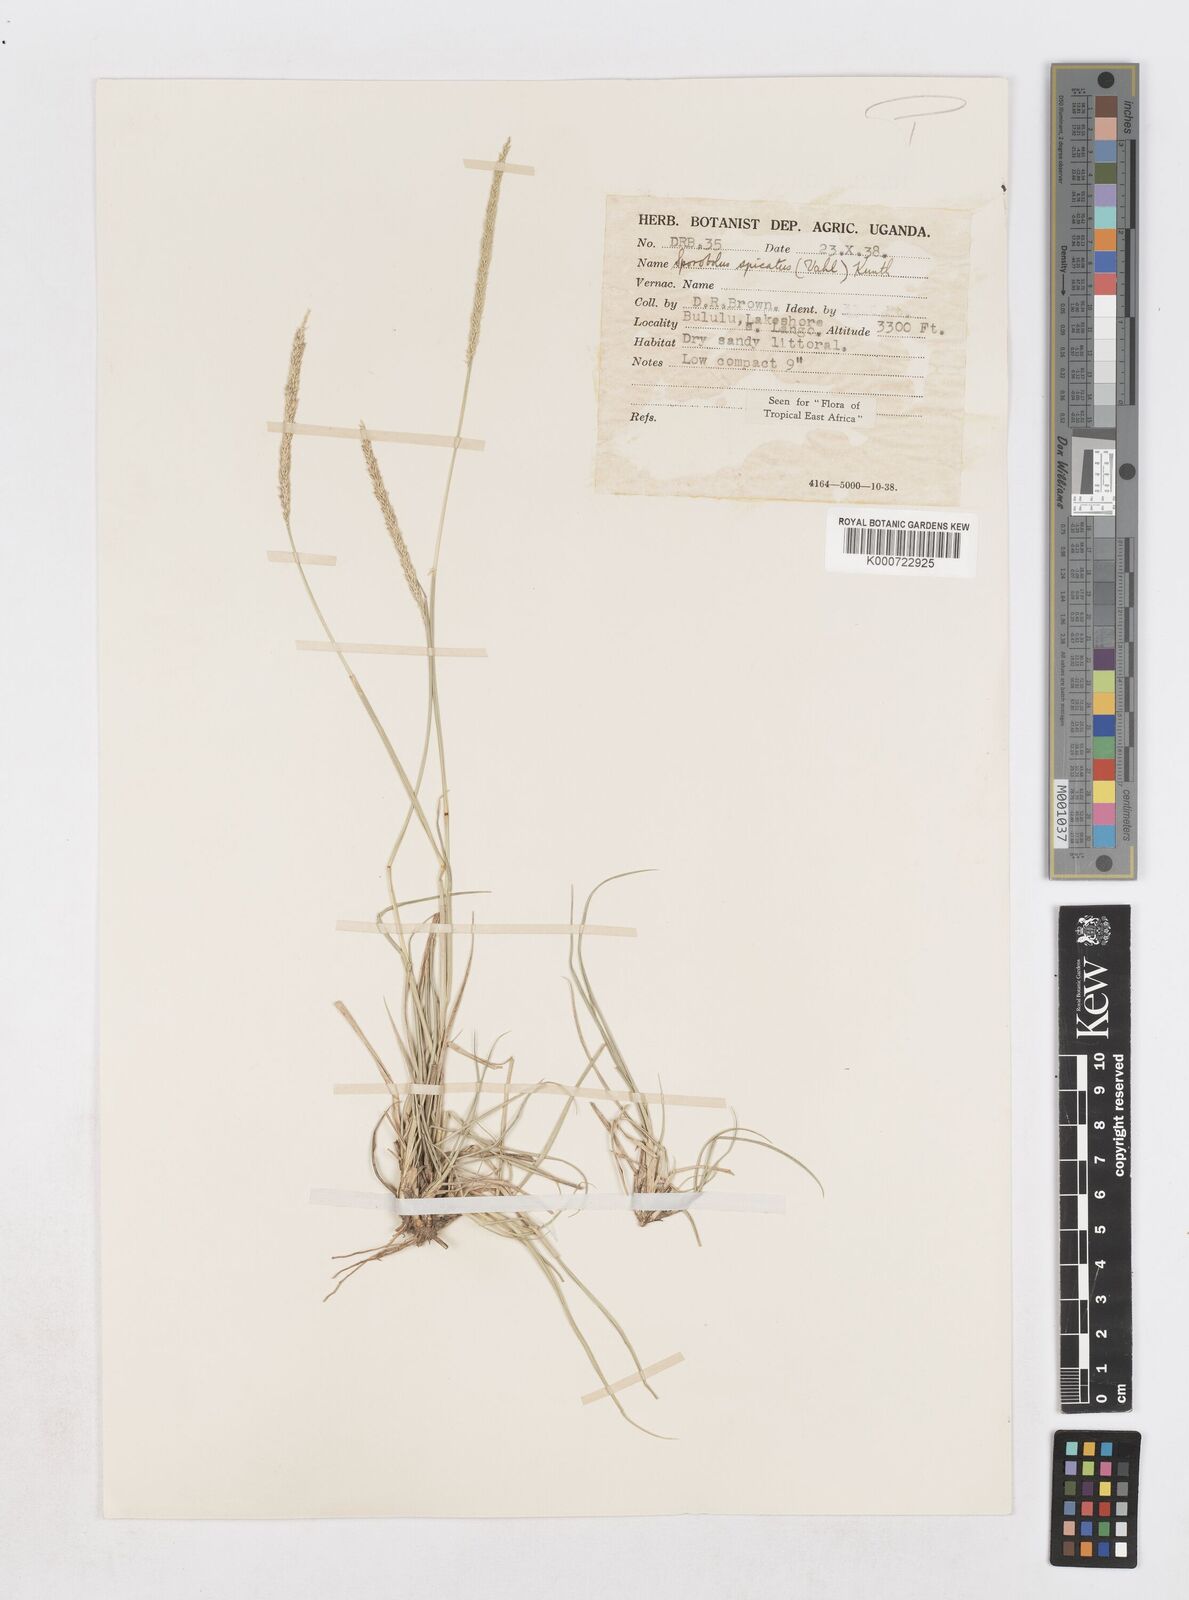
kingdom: Plantae
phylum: Tracheophyta
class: Liliopsida
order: Poales
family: Poaceae
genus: Sporobolus
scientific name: Sporobolus spicatus
